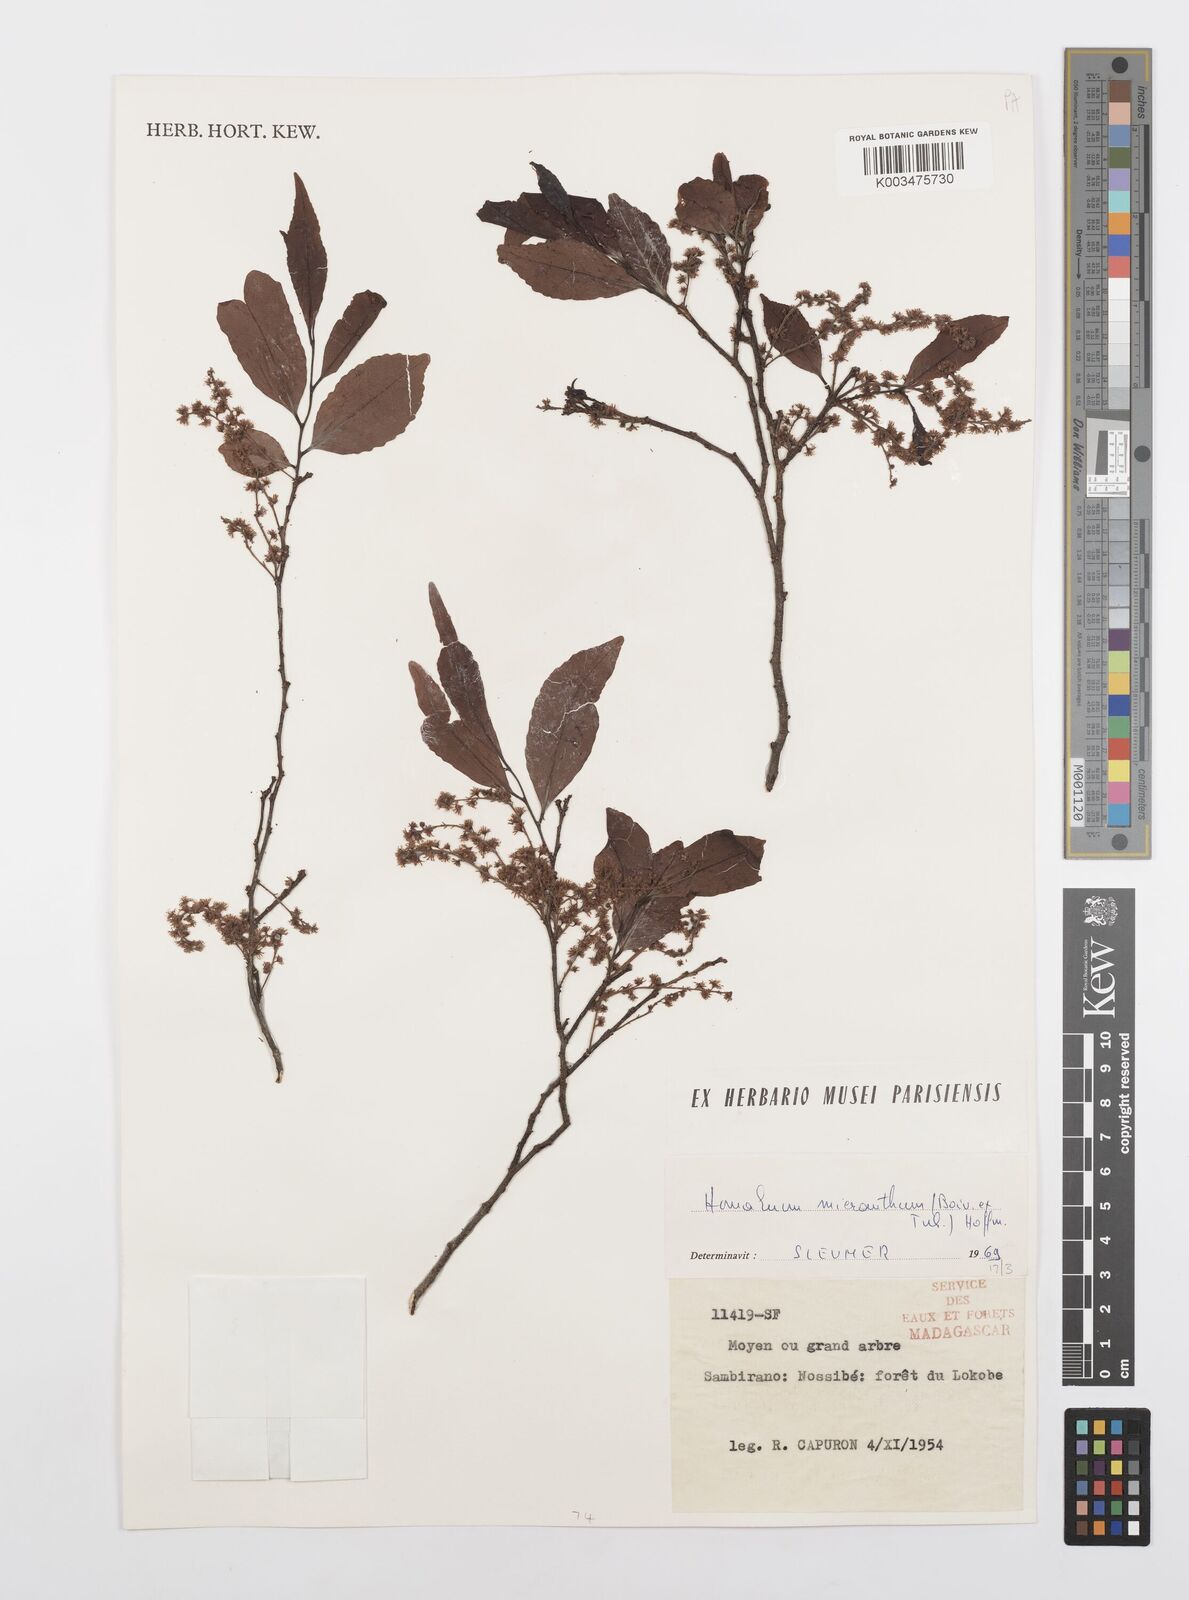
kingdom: Plantae
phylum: Tracheophyta
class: Magnoliopsida
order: Malpighiales
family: Salicaceae
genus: Homalium
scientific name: Homalium micranthum
